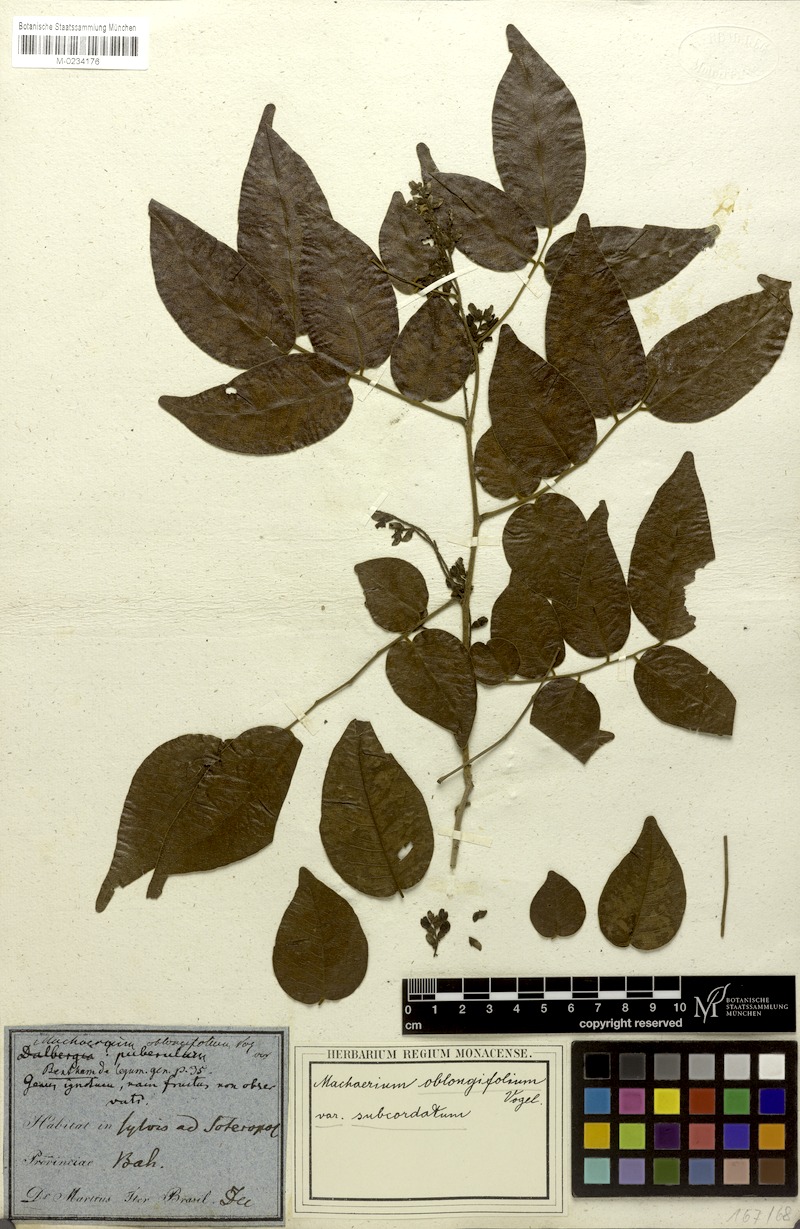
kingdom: Plantae
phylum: Tracheophyta
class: Magnoliopsida
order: Fabales
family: Fabaceae
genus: Machaerium
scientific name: Machaerium punctatum
